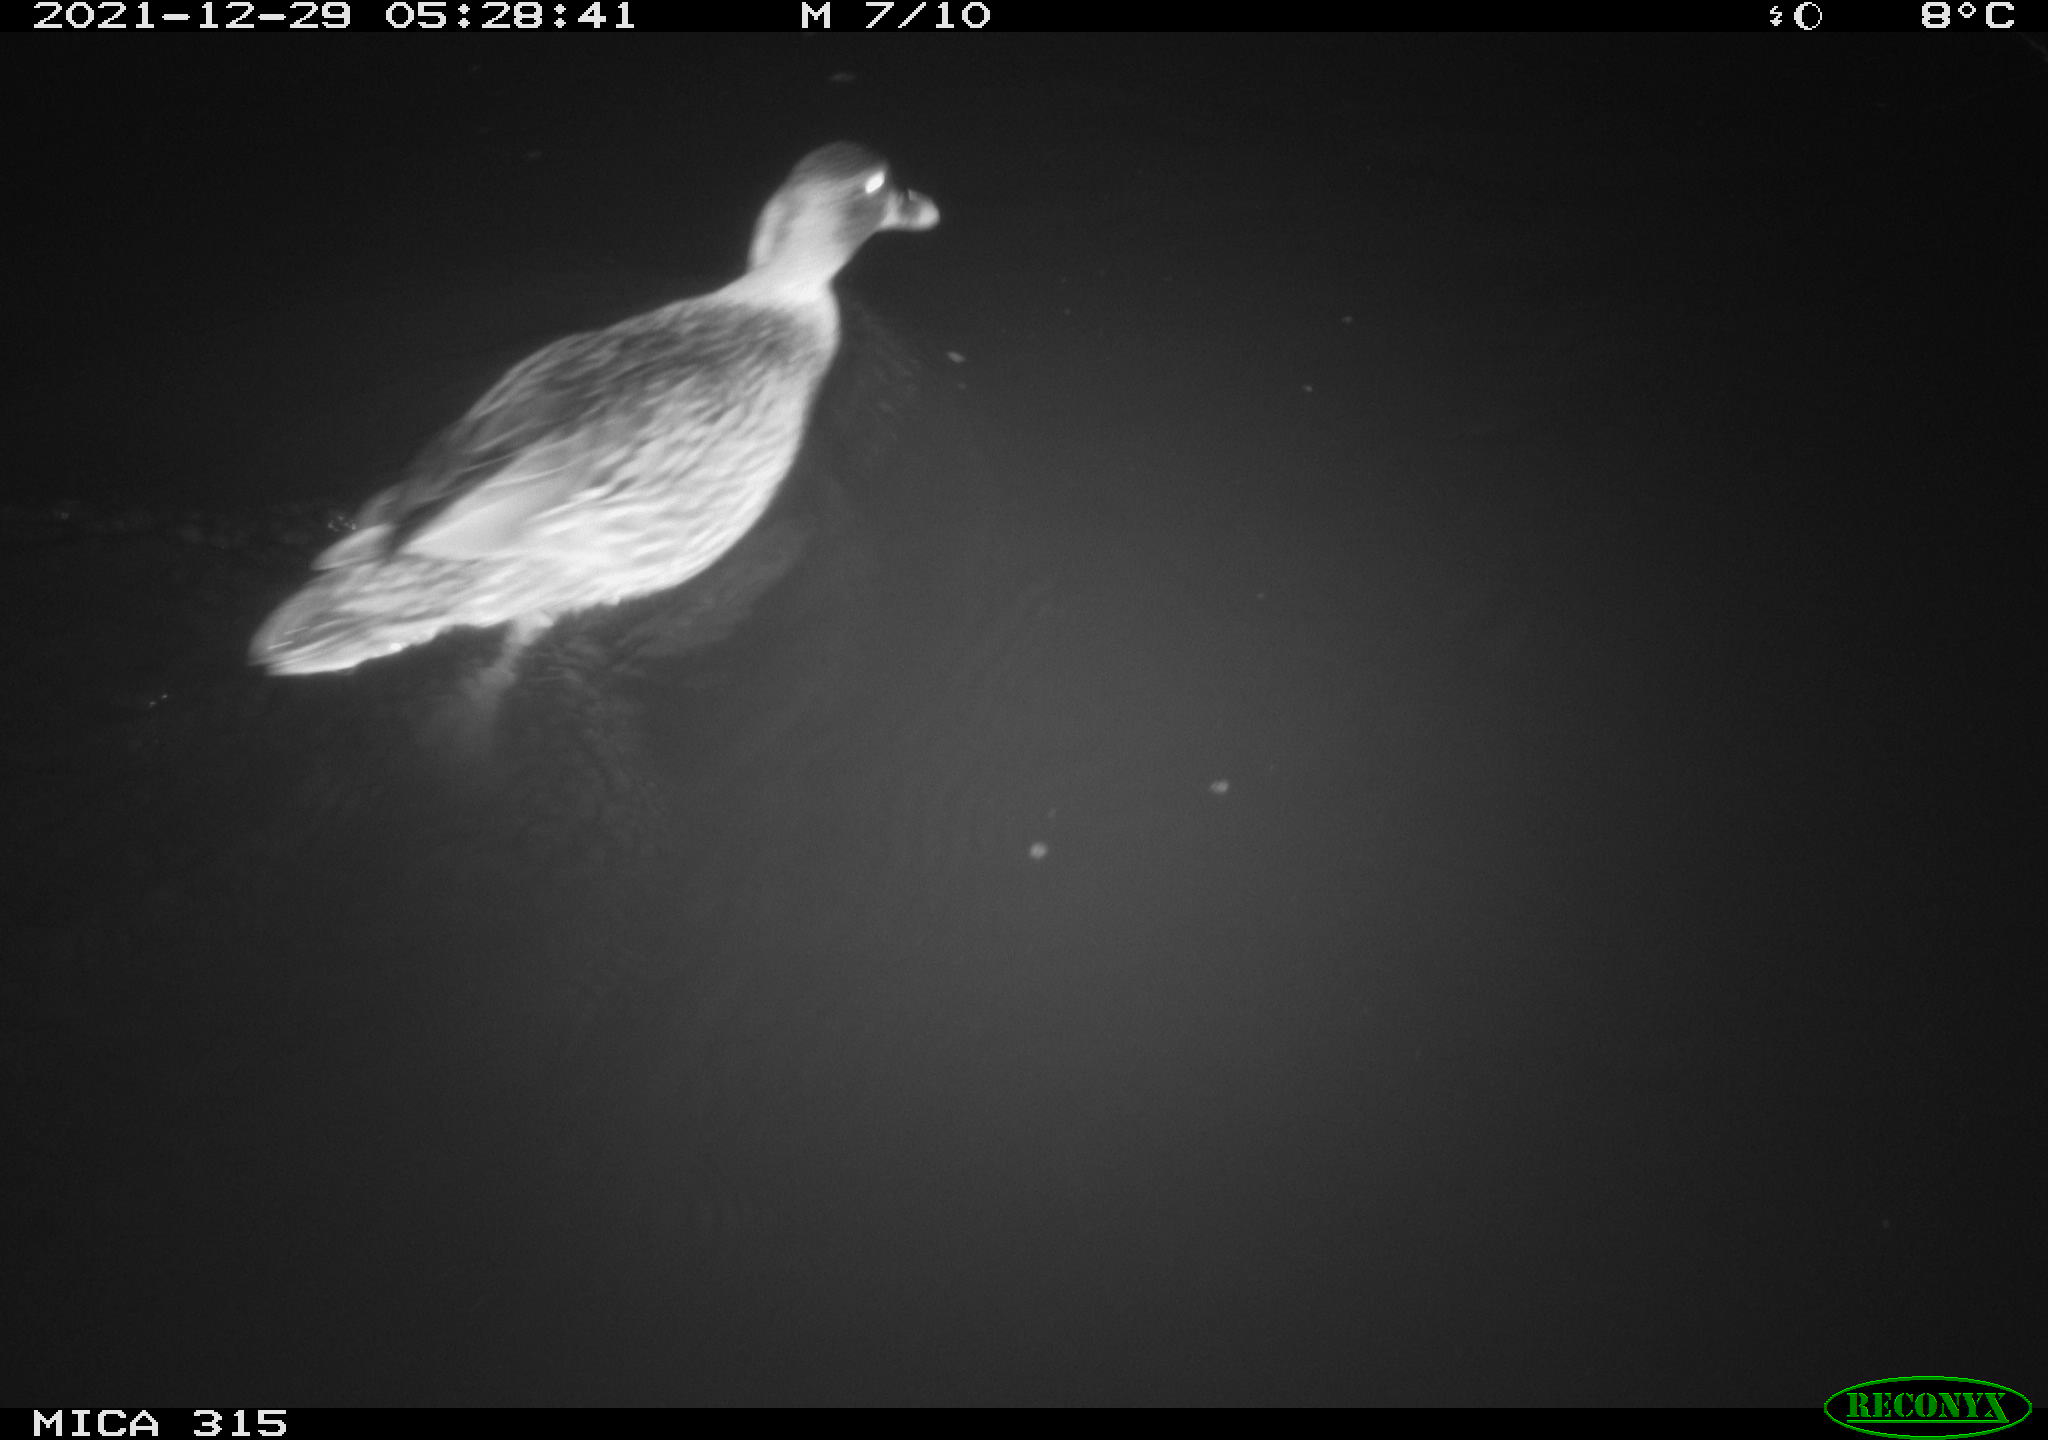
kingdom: Animalia
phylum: Chordata
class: Aves
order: Anseriformes
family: Anatidae
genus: Anas
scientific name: Anas
